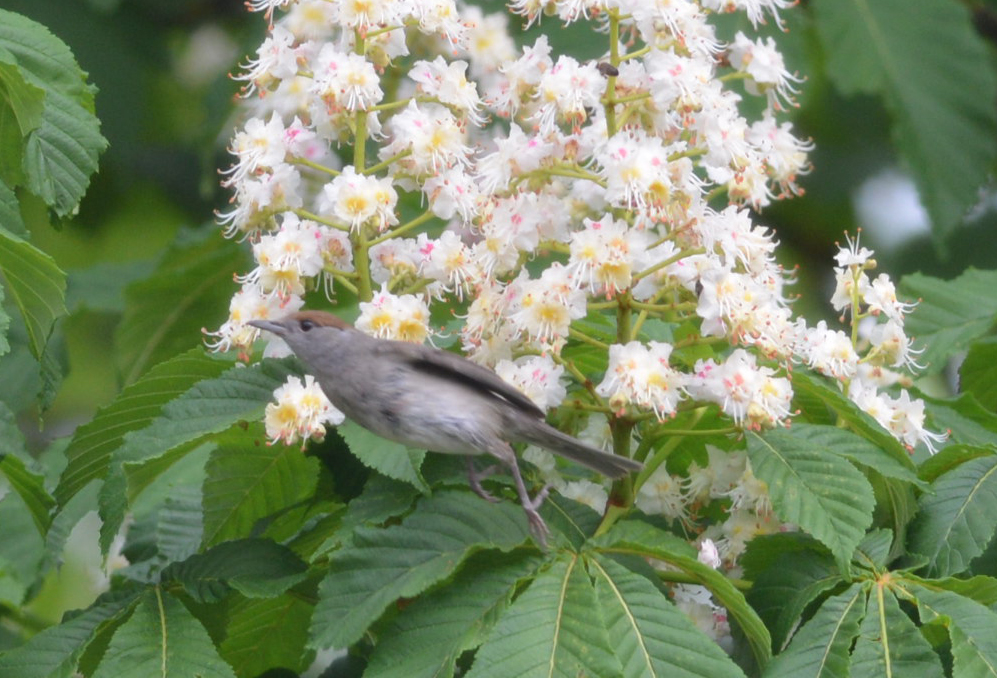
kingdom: Animalia
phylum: Chordata
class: Aves
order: Passeriformes
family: Sylviidae
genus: Sylvia
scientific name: Sylvia atricapilla
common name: Eurasian blackcap
